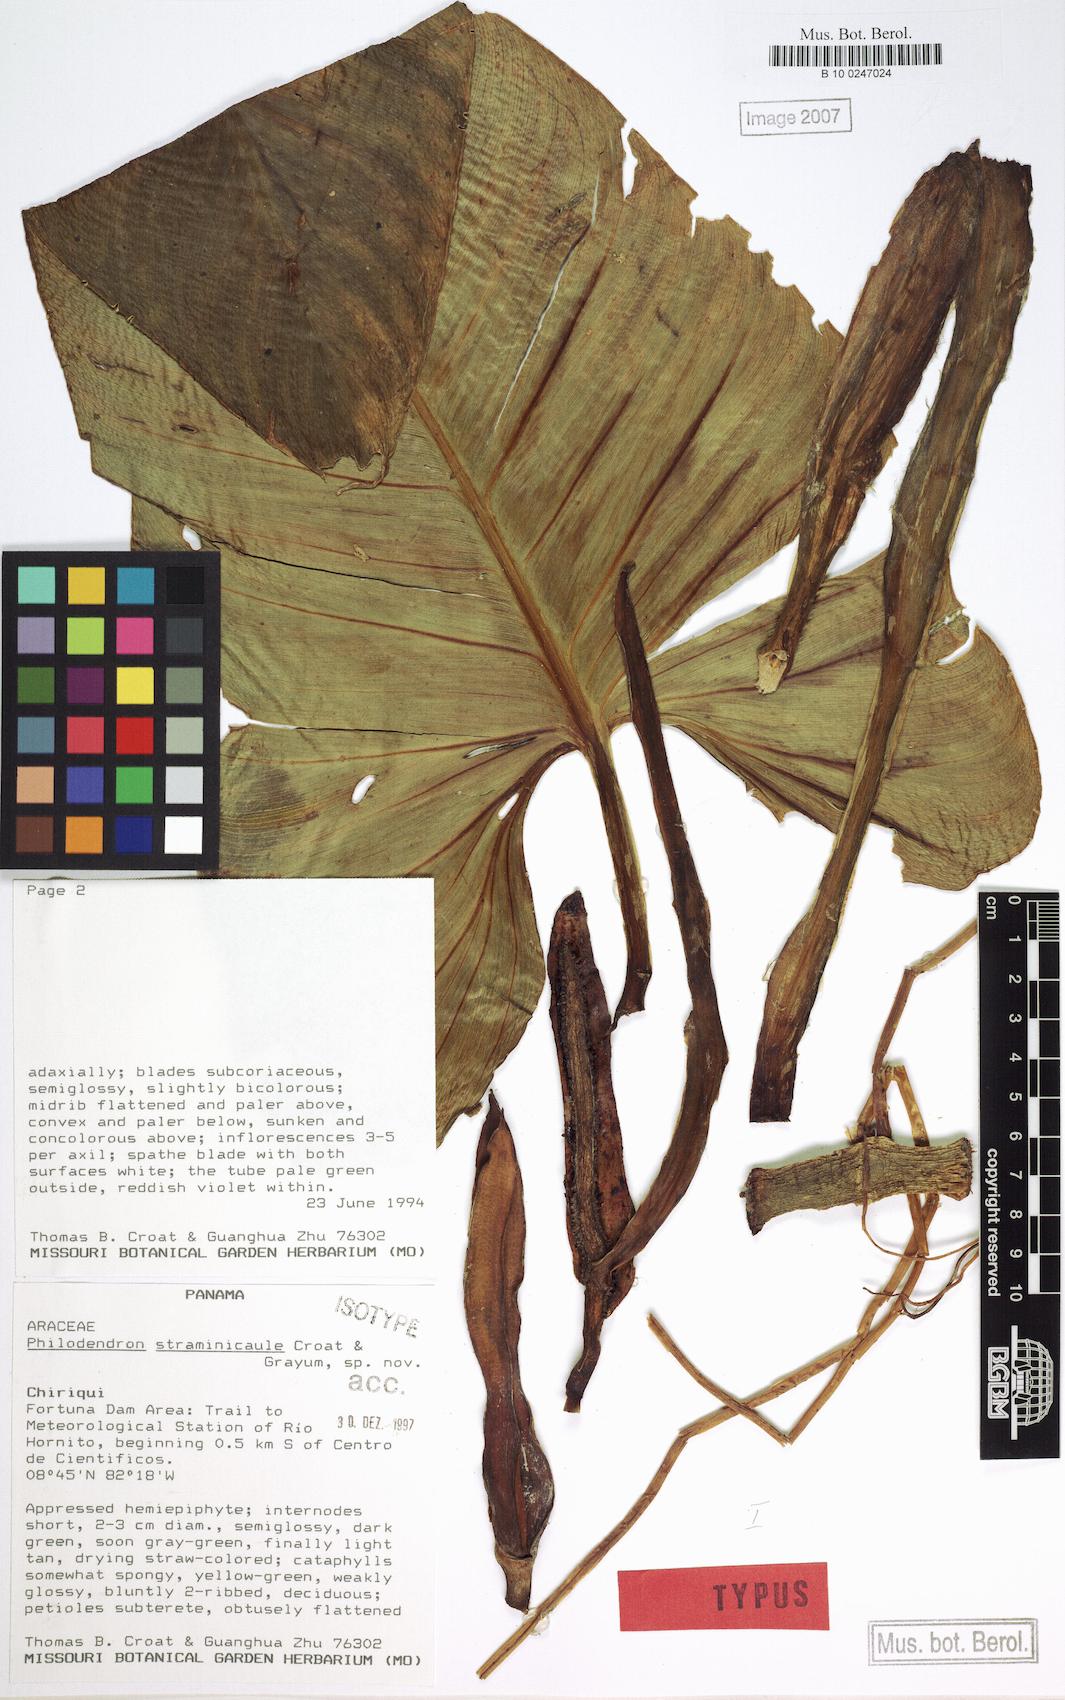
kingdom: Plantae
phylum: Tracheophyta
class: Liliopsida
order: Alismatales
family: Araceae
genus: Philodendron
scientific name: Philodendron straminicaule
